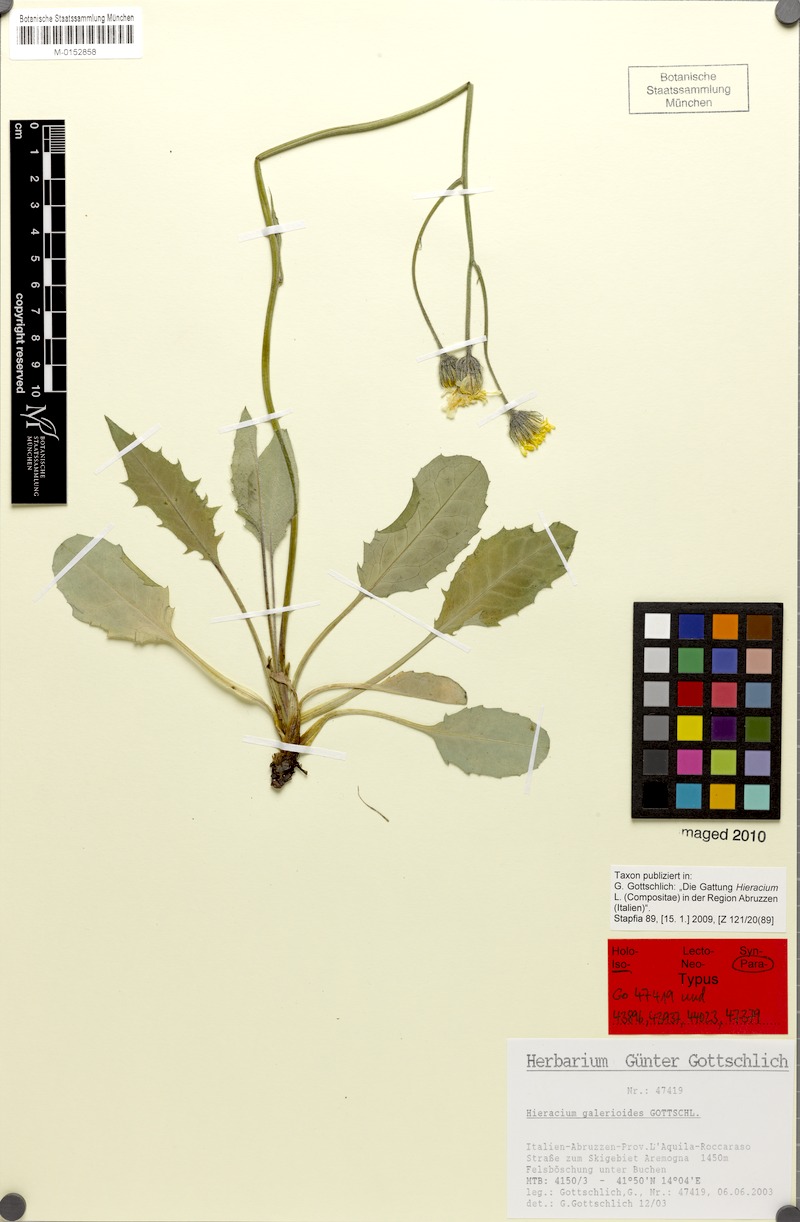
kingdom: Plantae
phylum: Tracheophyta
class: Magnoliopsida
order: Asterales
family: Asteraceae
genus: Hieracium
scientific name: Hieracium galeroides
